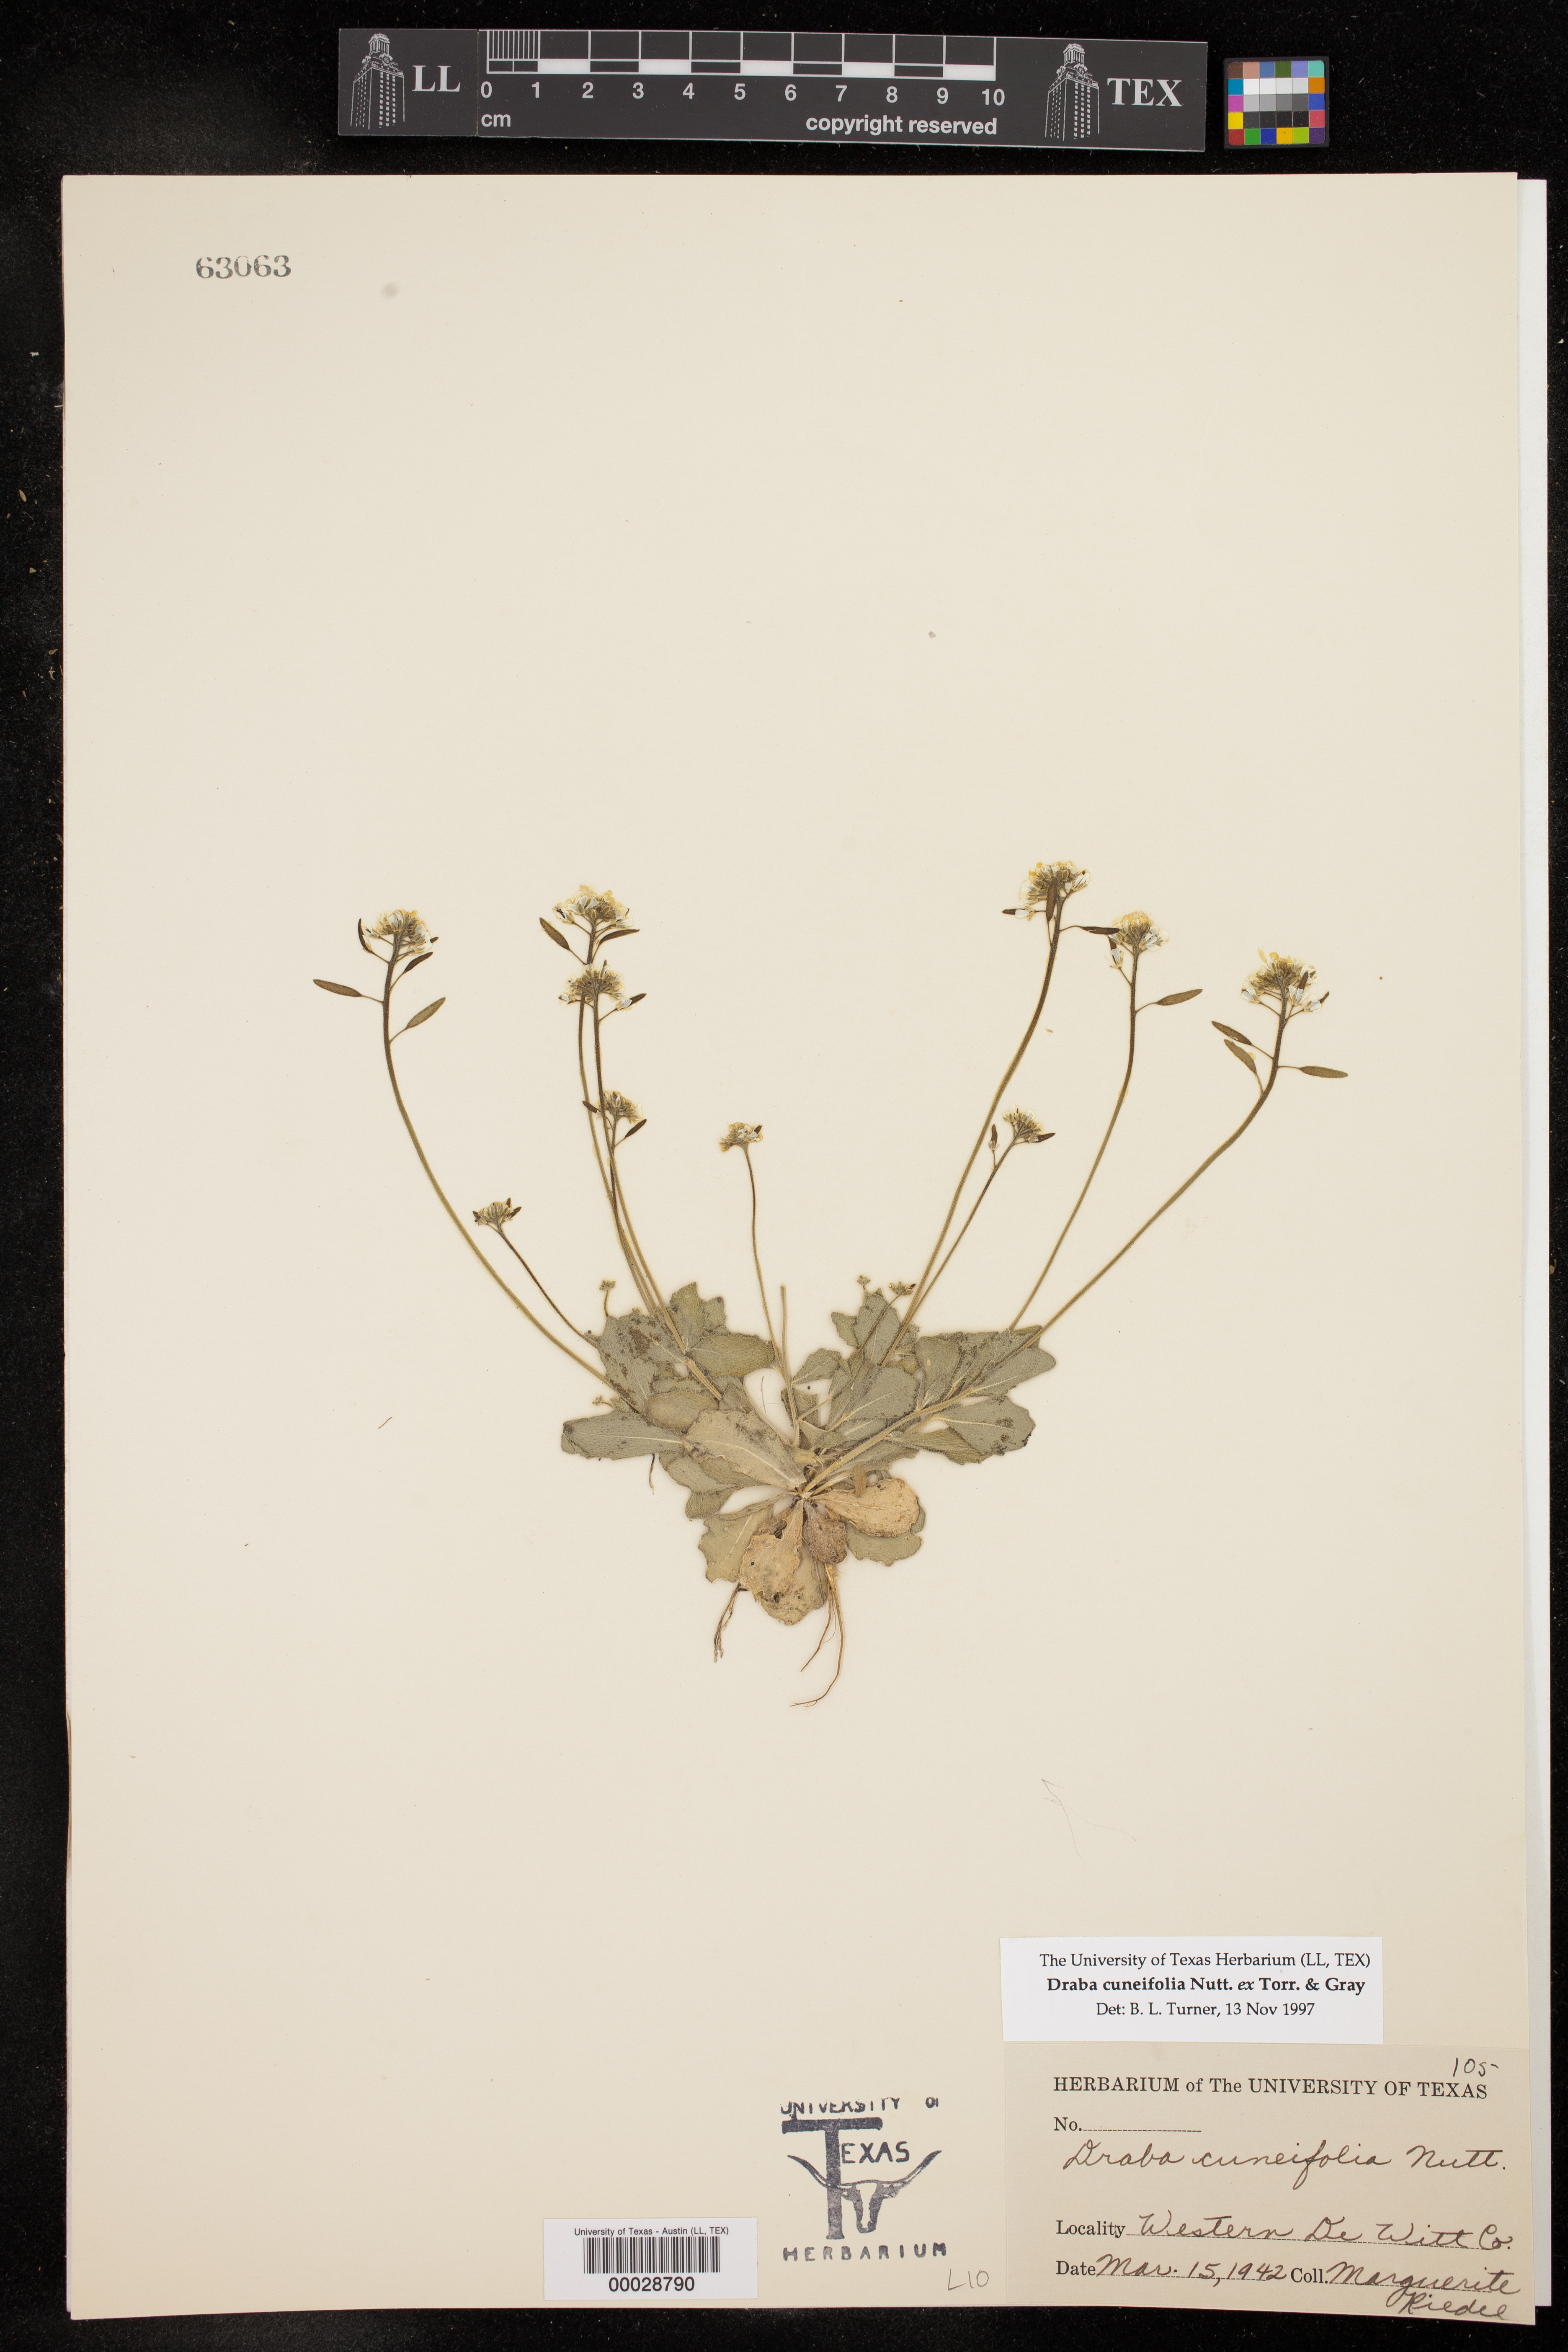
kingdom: Plantae
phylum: Tracheophyta
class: Magnoliopsida
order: Brassicales
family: Brassicaceae
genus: Tomostima
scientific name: Tomostima cuneifolia
